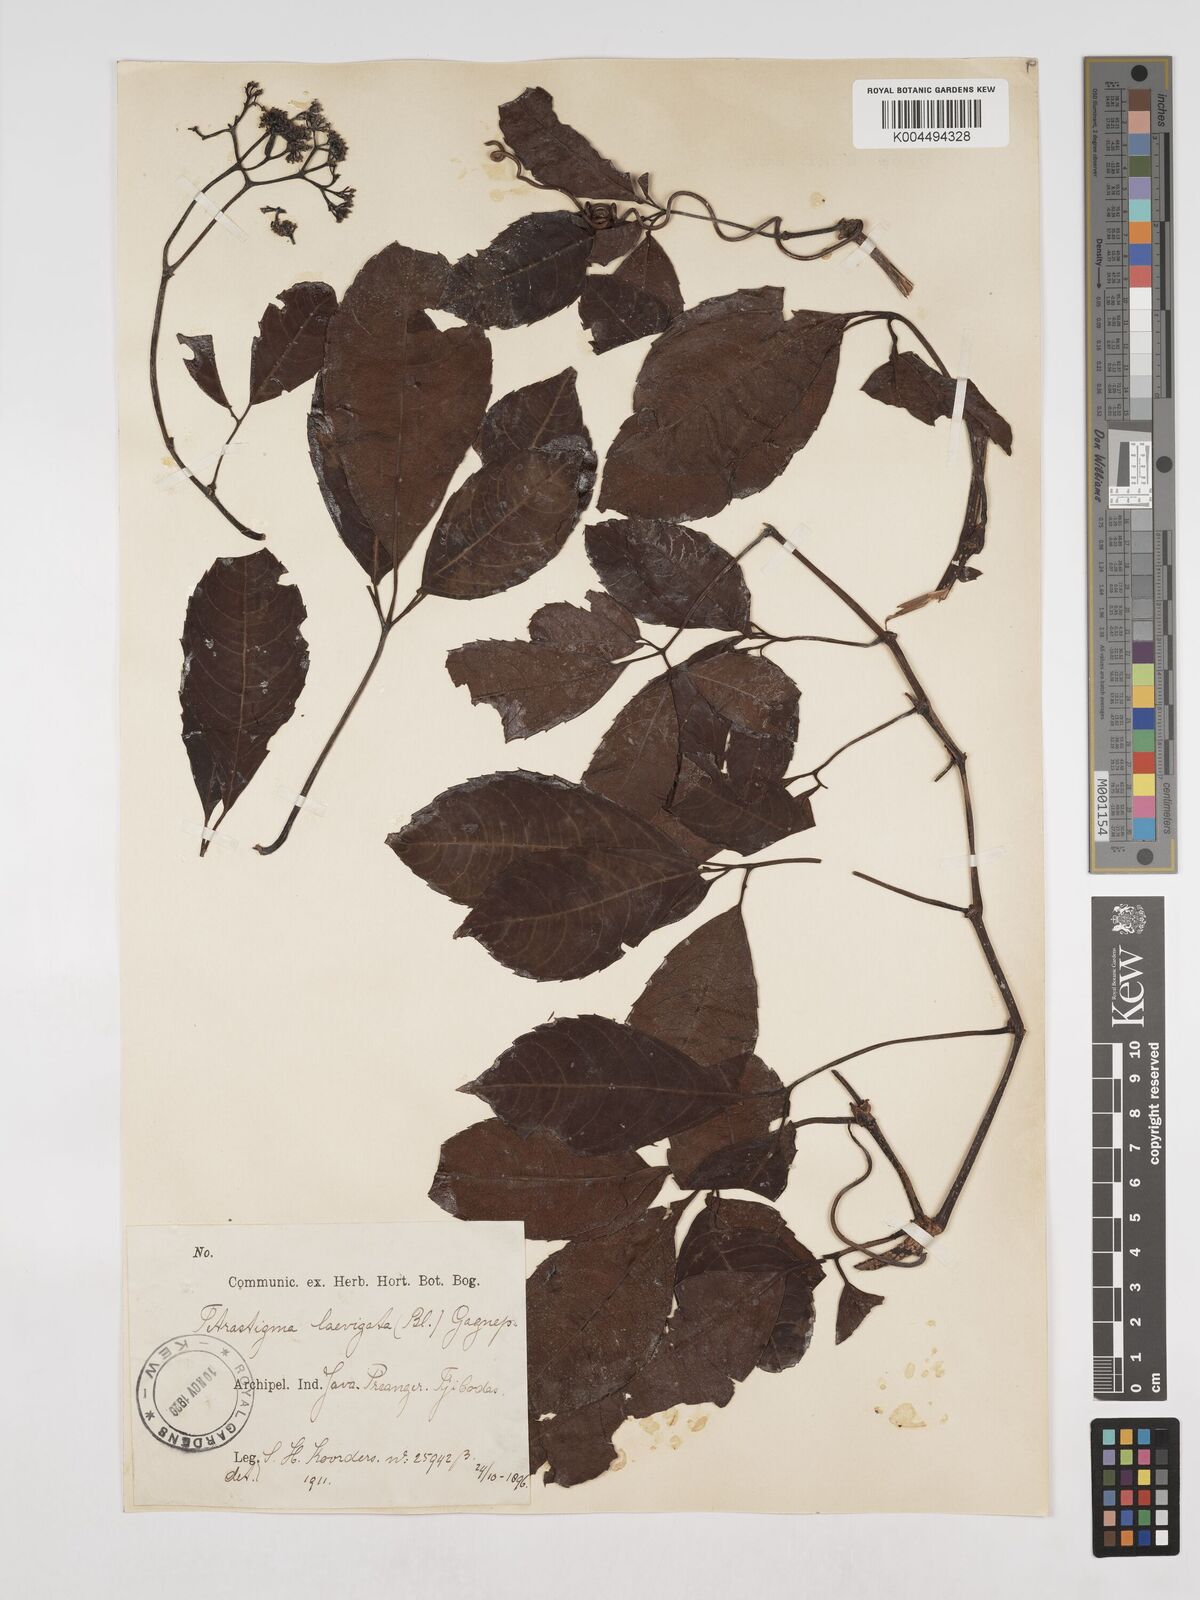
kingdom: Plantae
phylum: Tracheophyta
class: Magnoliopsida
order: Vitales
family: Vitaceae
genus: Tetrastigma
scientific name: Tetrastigma laevigatum
